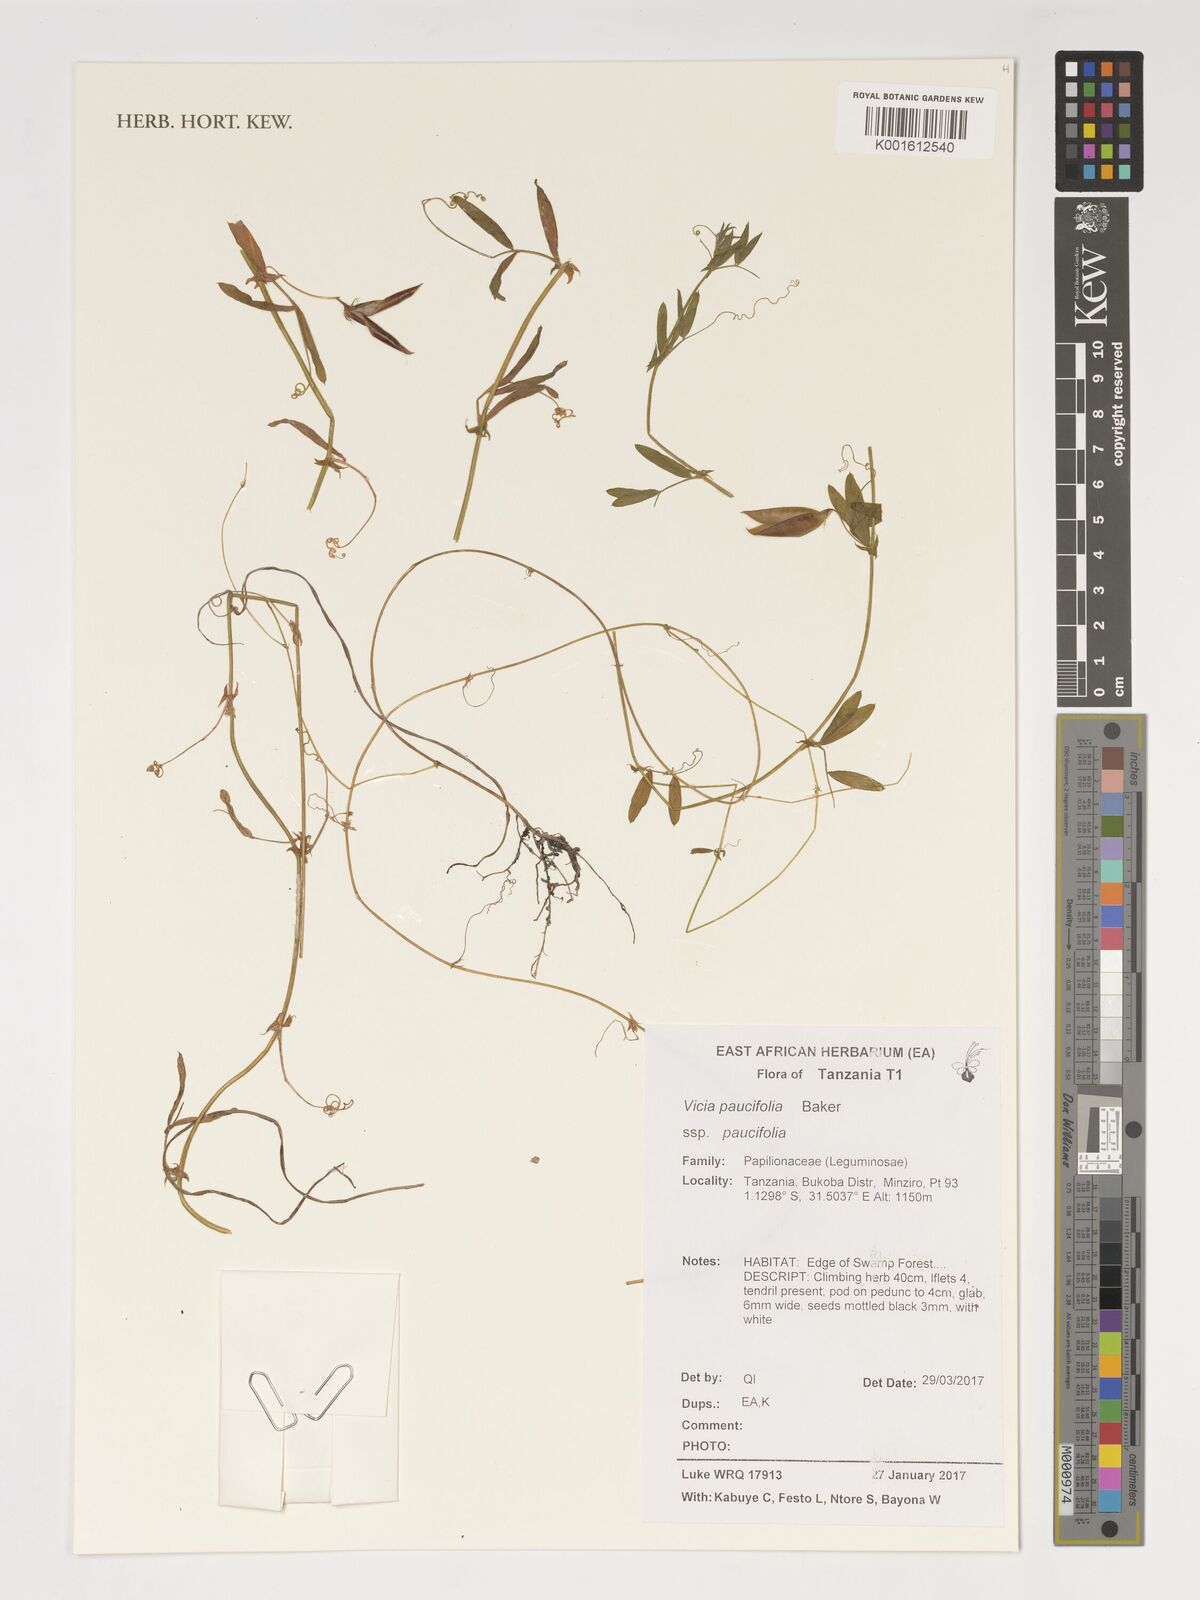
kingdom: Plantae
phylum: Tracheophyta
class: Magnoliopsida
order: Fabales
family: Fabaceae
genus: Vicia
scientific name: Vicia paucifolia
